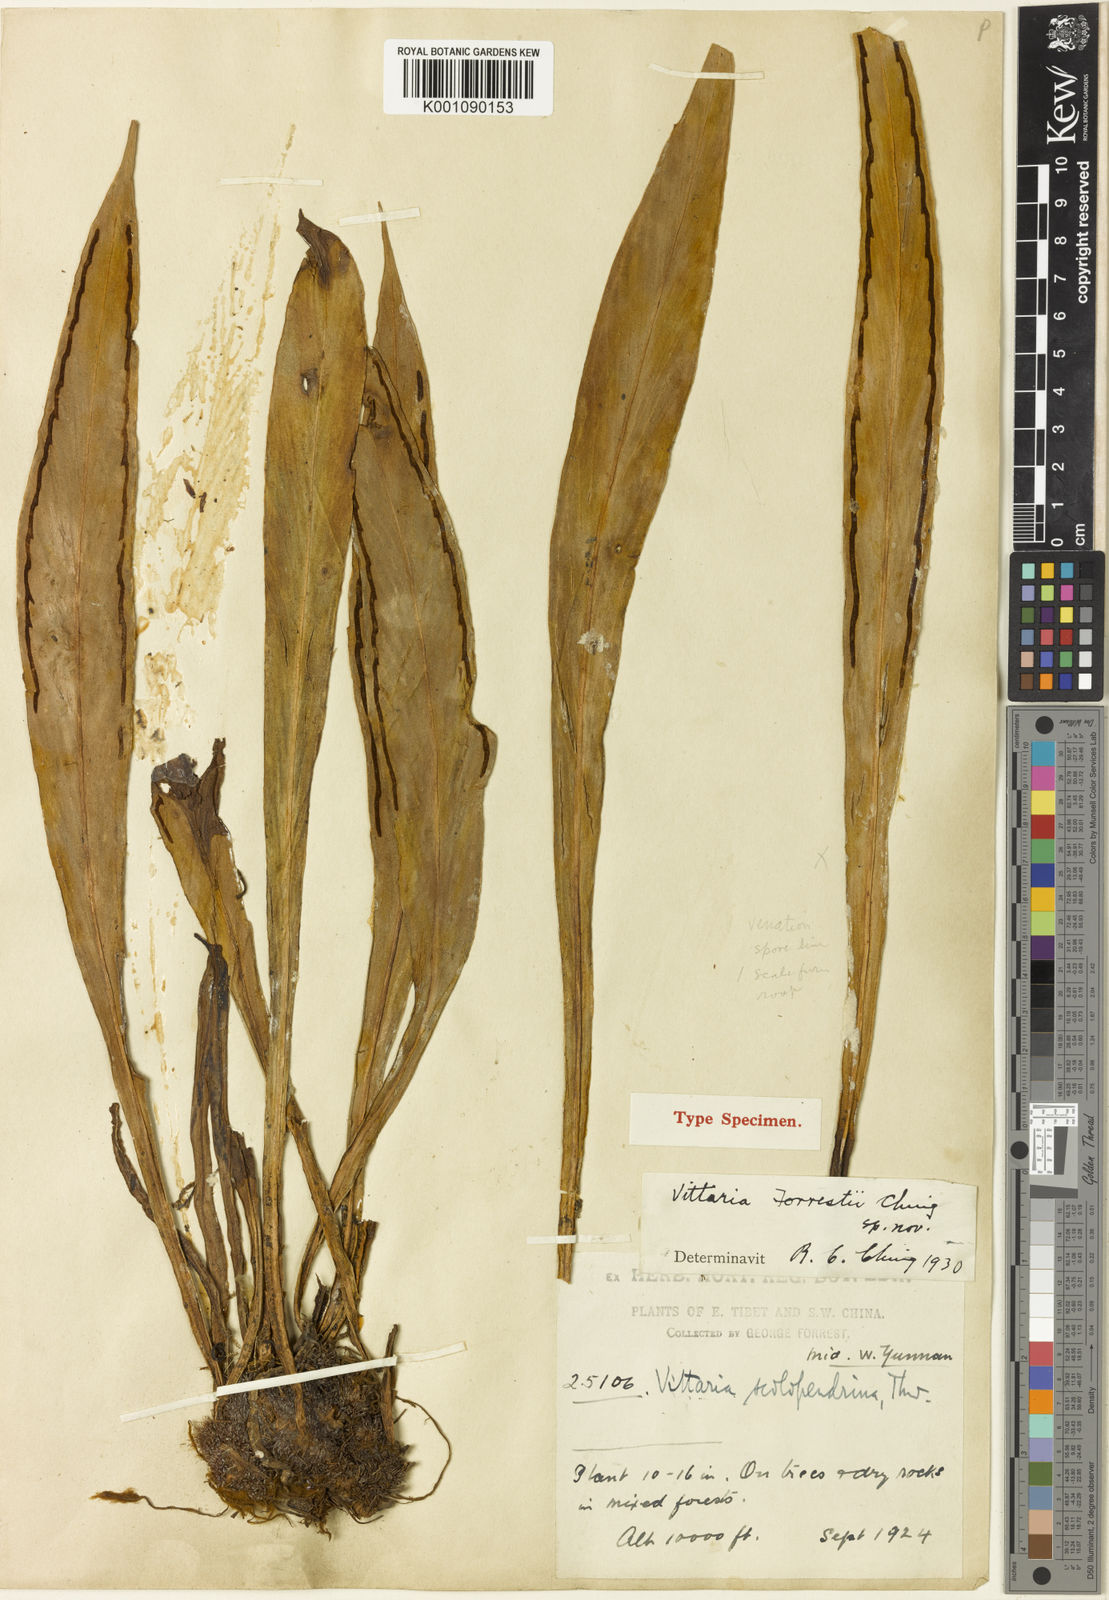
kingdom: Plantae
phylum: Tracheophyta
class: Polypodiopsida
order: Polypodiales
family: Pteridaceae
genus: Haplopteris
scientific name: Haplopteris taeniophylla
